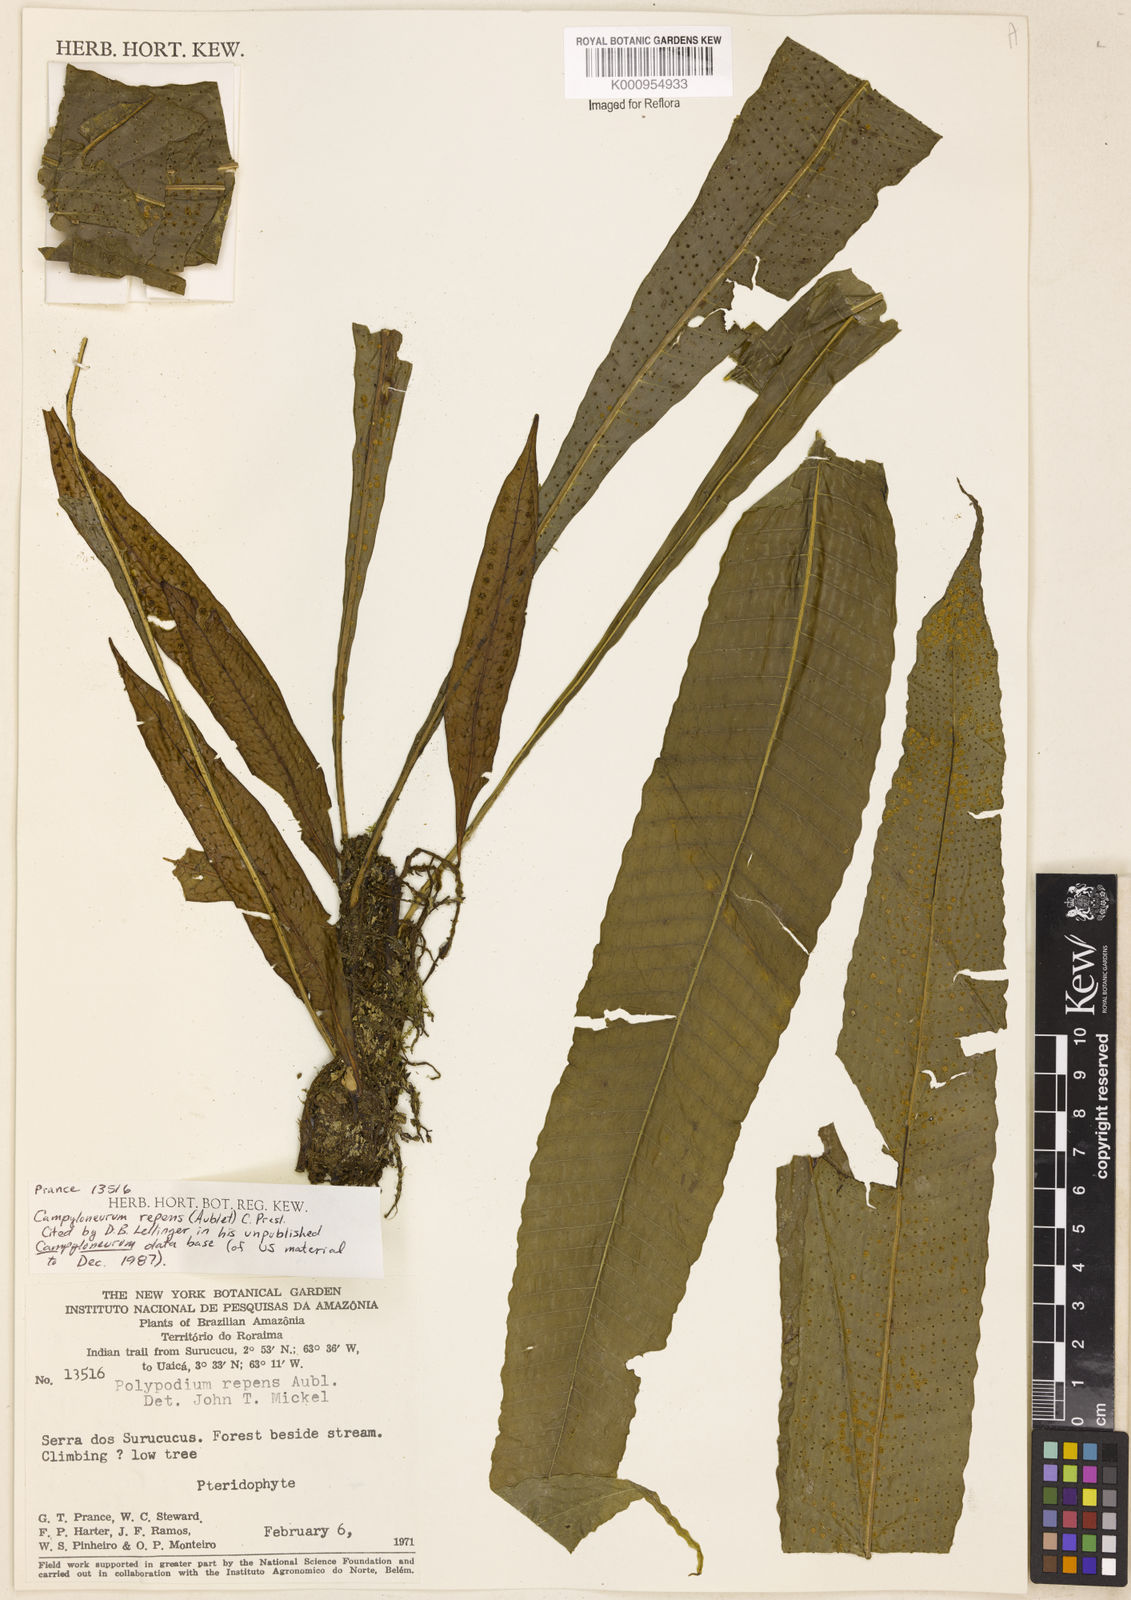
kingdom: Plantae
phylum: Tracheophyta
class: Polypodiopsida
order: Polypodiales
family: Polypodiaceae
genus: Campyloneurum
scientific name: Campyloneurum repens
